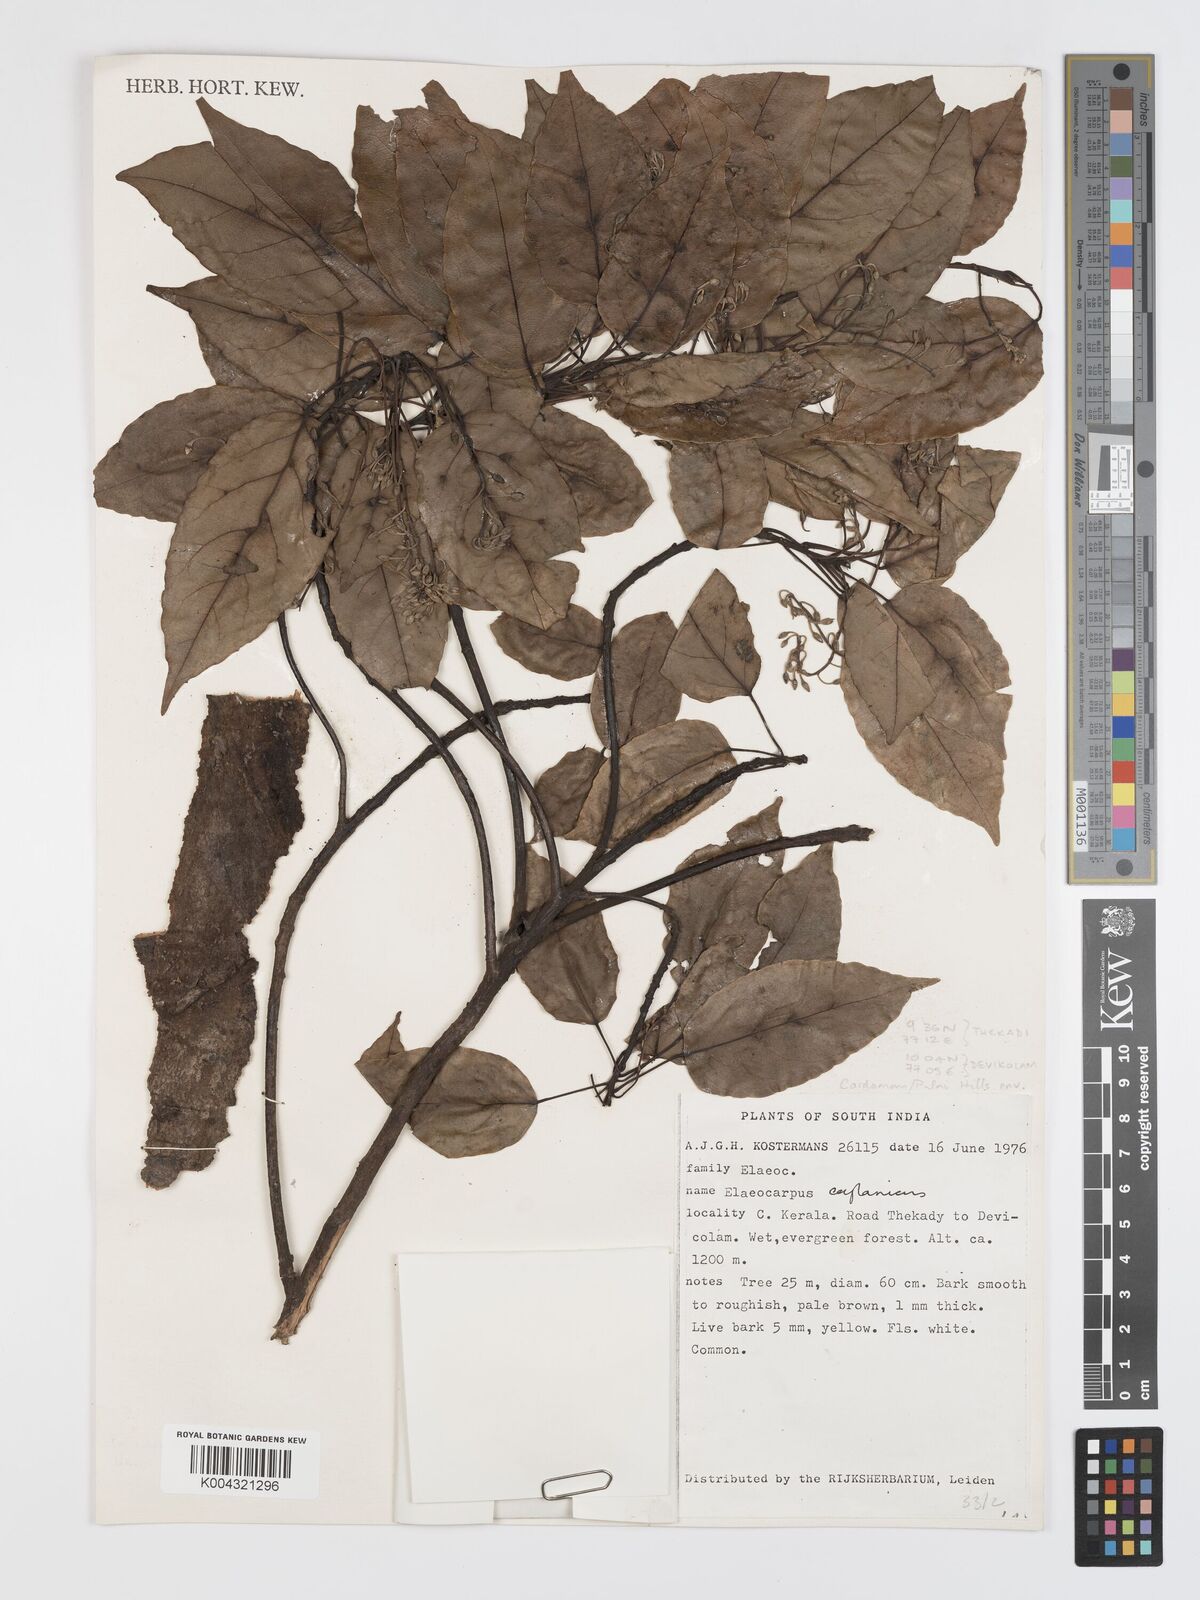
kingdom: Plantae
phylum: Tracheophyta
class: Magnoliopsida
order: Oxalidales
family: Elaeocarpaceae
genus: Elaeocarpus
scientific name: Elaeocarpus ceylanicus
